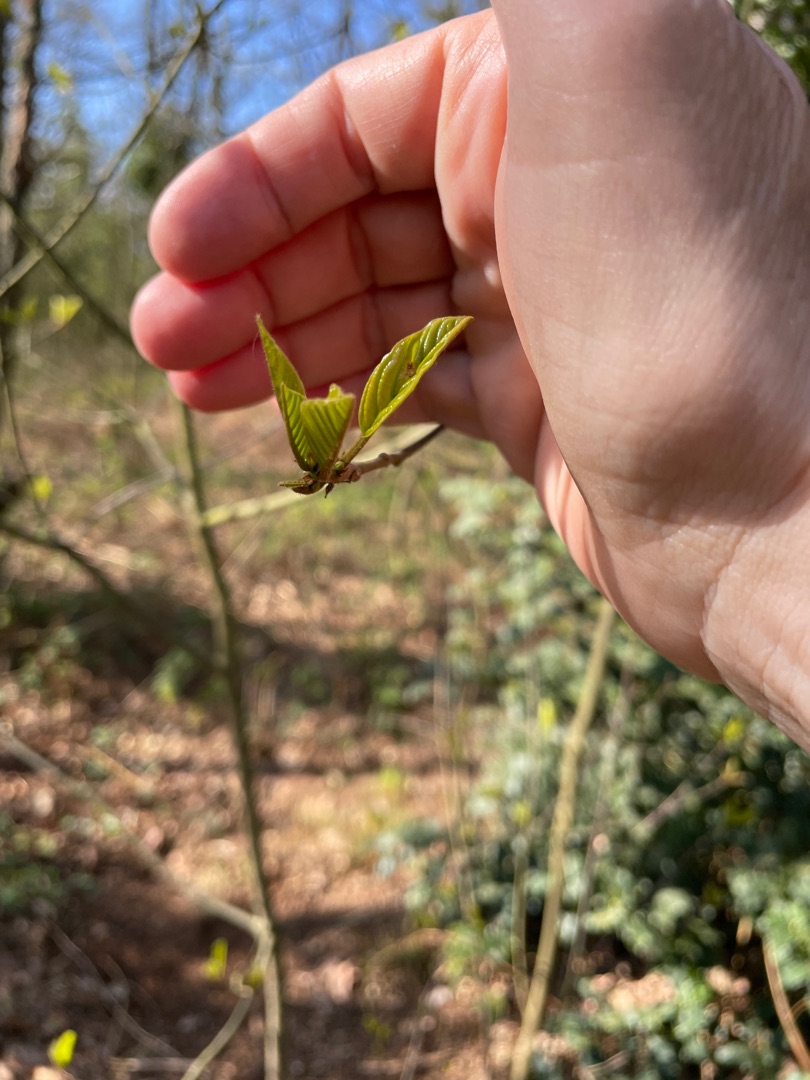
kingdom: Plantae
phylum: Tracheophyta
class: Magnoliopsida
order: Rosales
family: Rhamnaceae
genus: Frangula
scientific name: Frangula alnus
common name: Tørst
